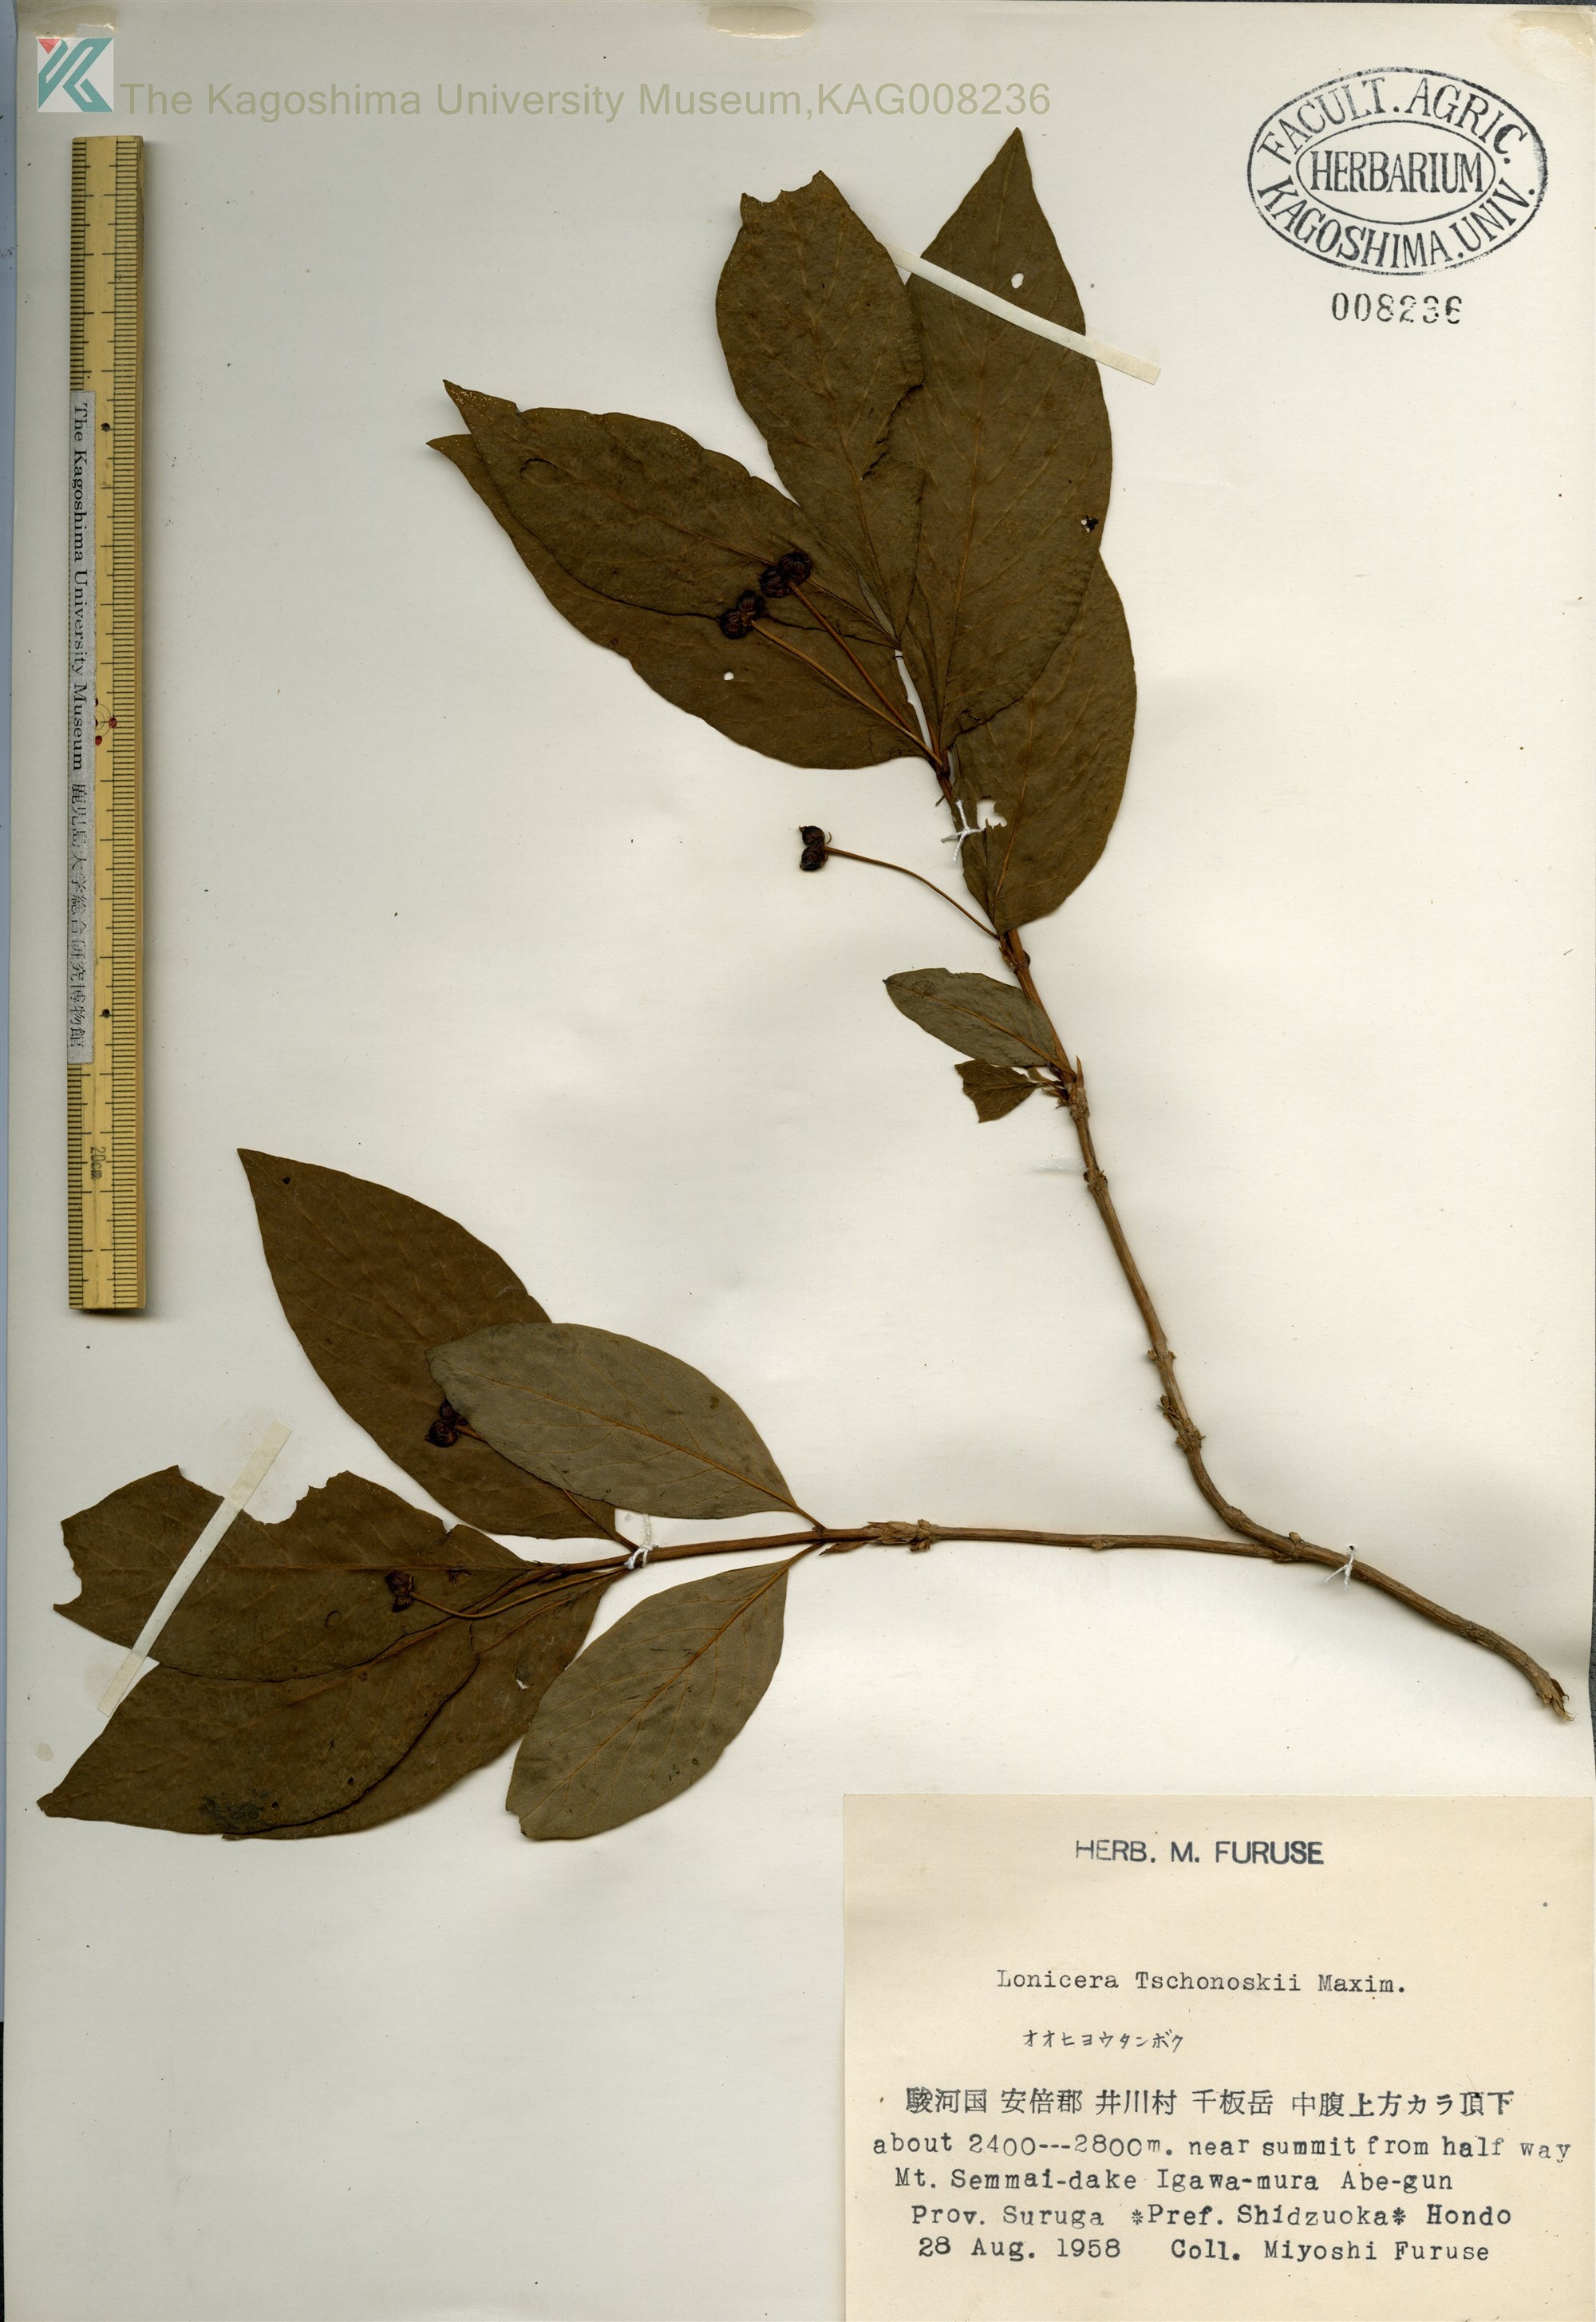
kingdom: Plantae
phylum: Tracheophyta
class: Magnoliopsida
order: Dipsacales
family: Caprifoliaceae
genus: Lonicera
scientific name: Lonicera
